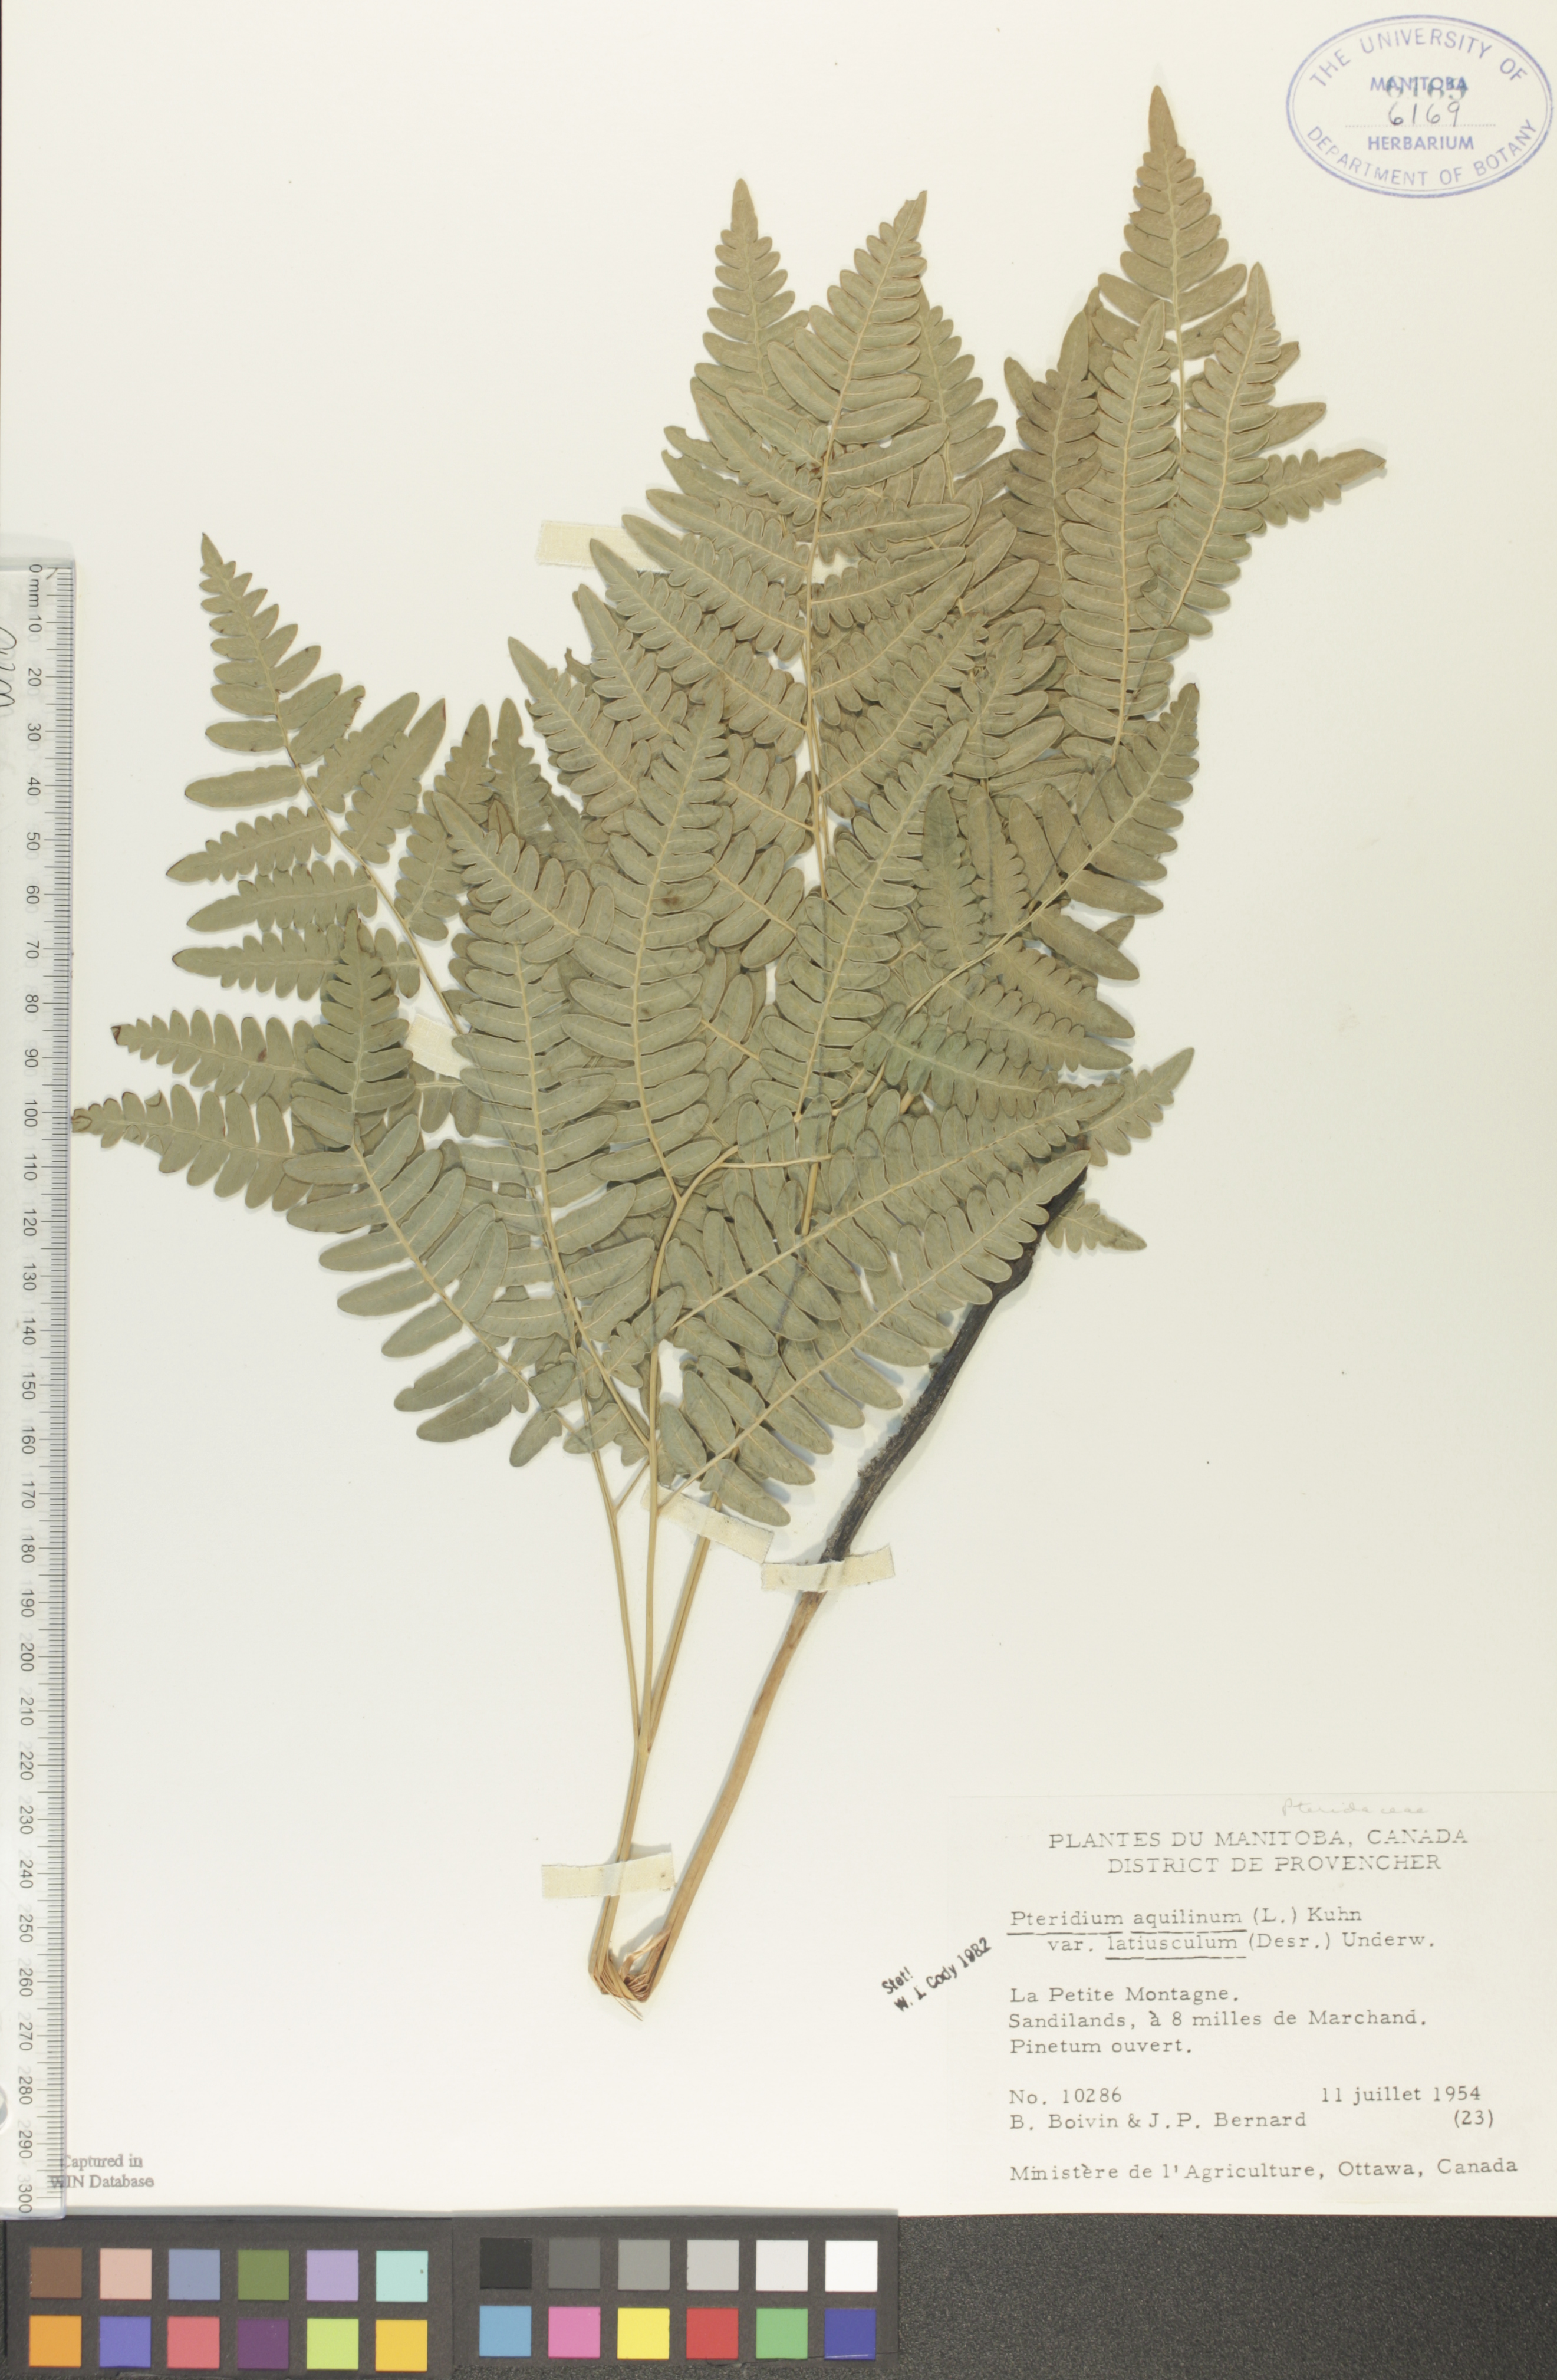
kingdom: Plantae
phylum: Tracheophyta
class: Polypodiopsida
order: Polypodiales
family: Dennstaedtiaceae
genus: Pteridium
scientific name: Pteridium aquilinum
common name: Bracken
